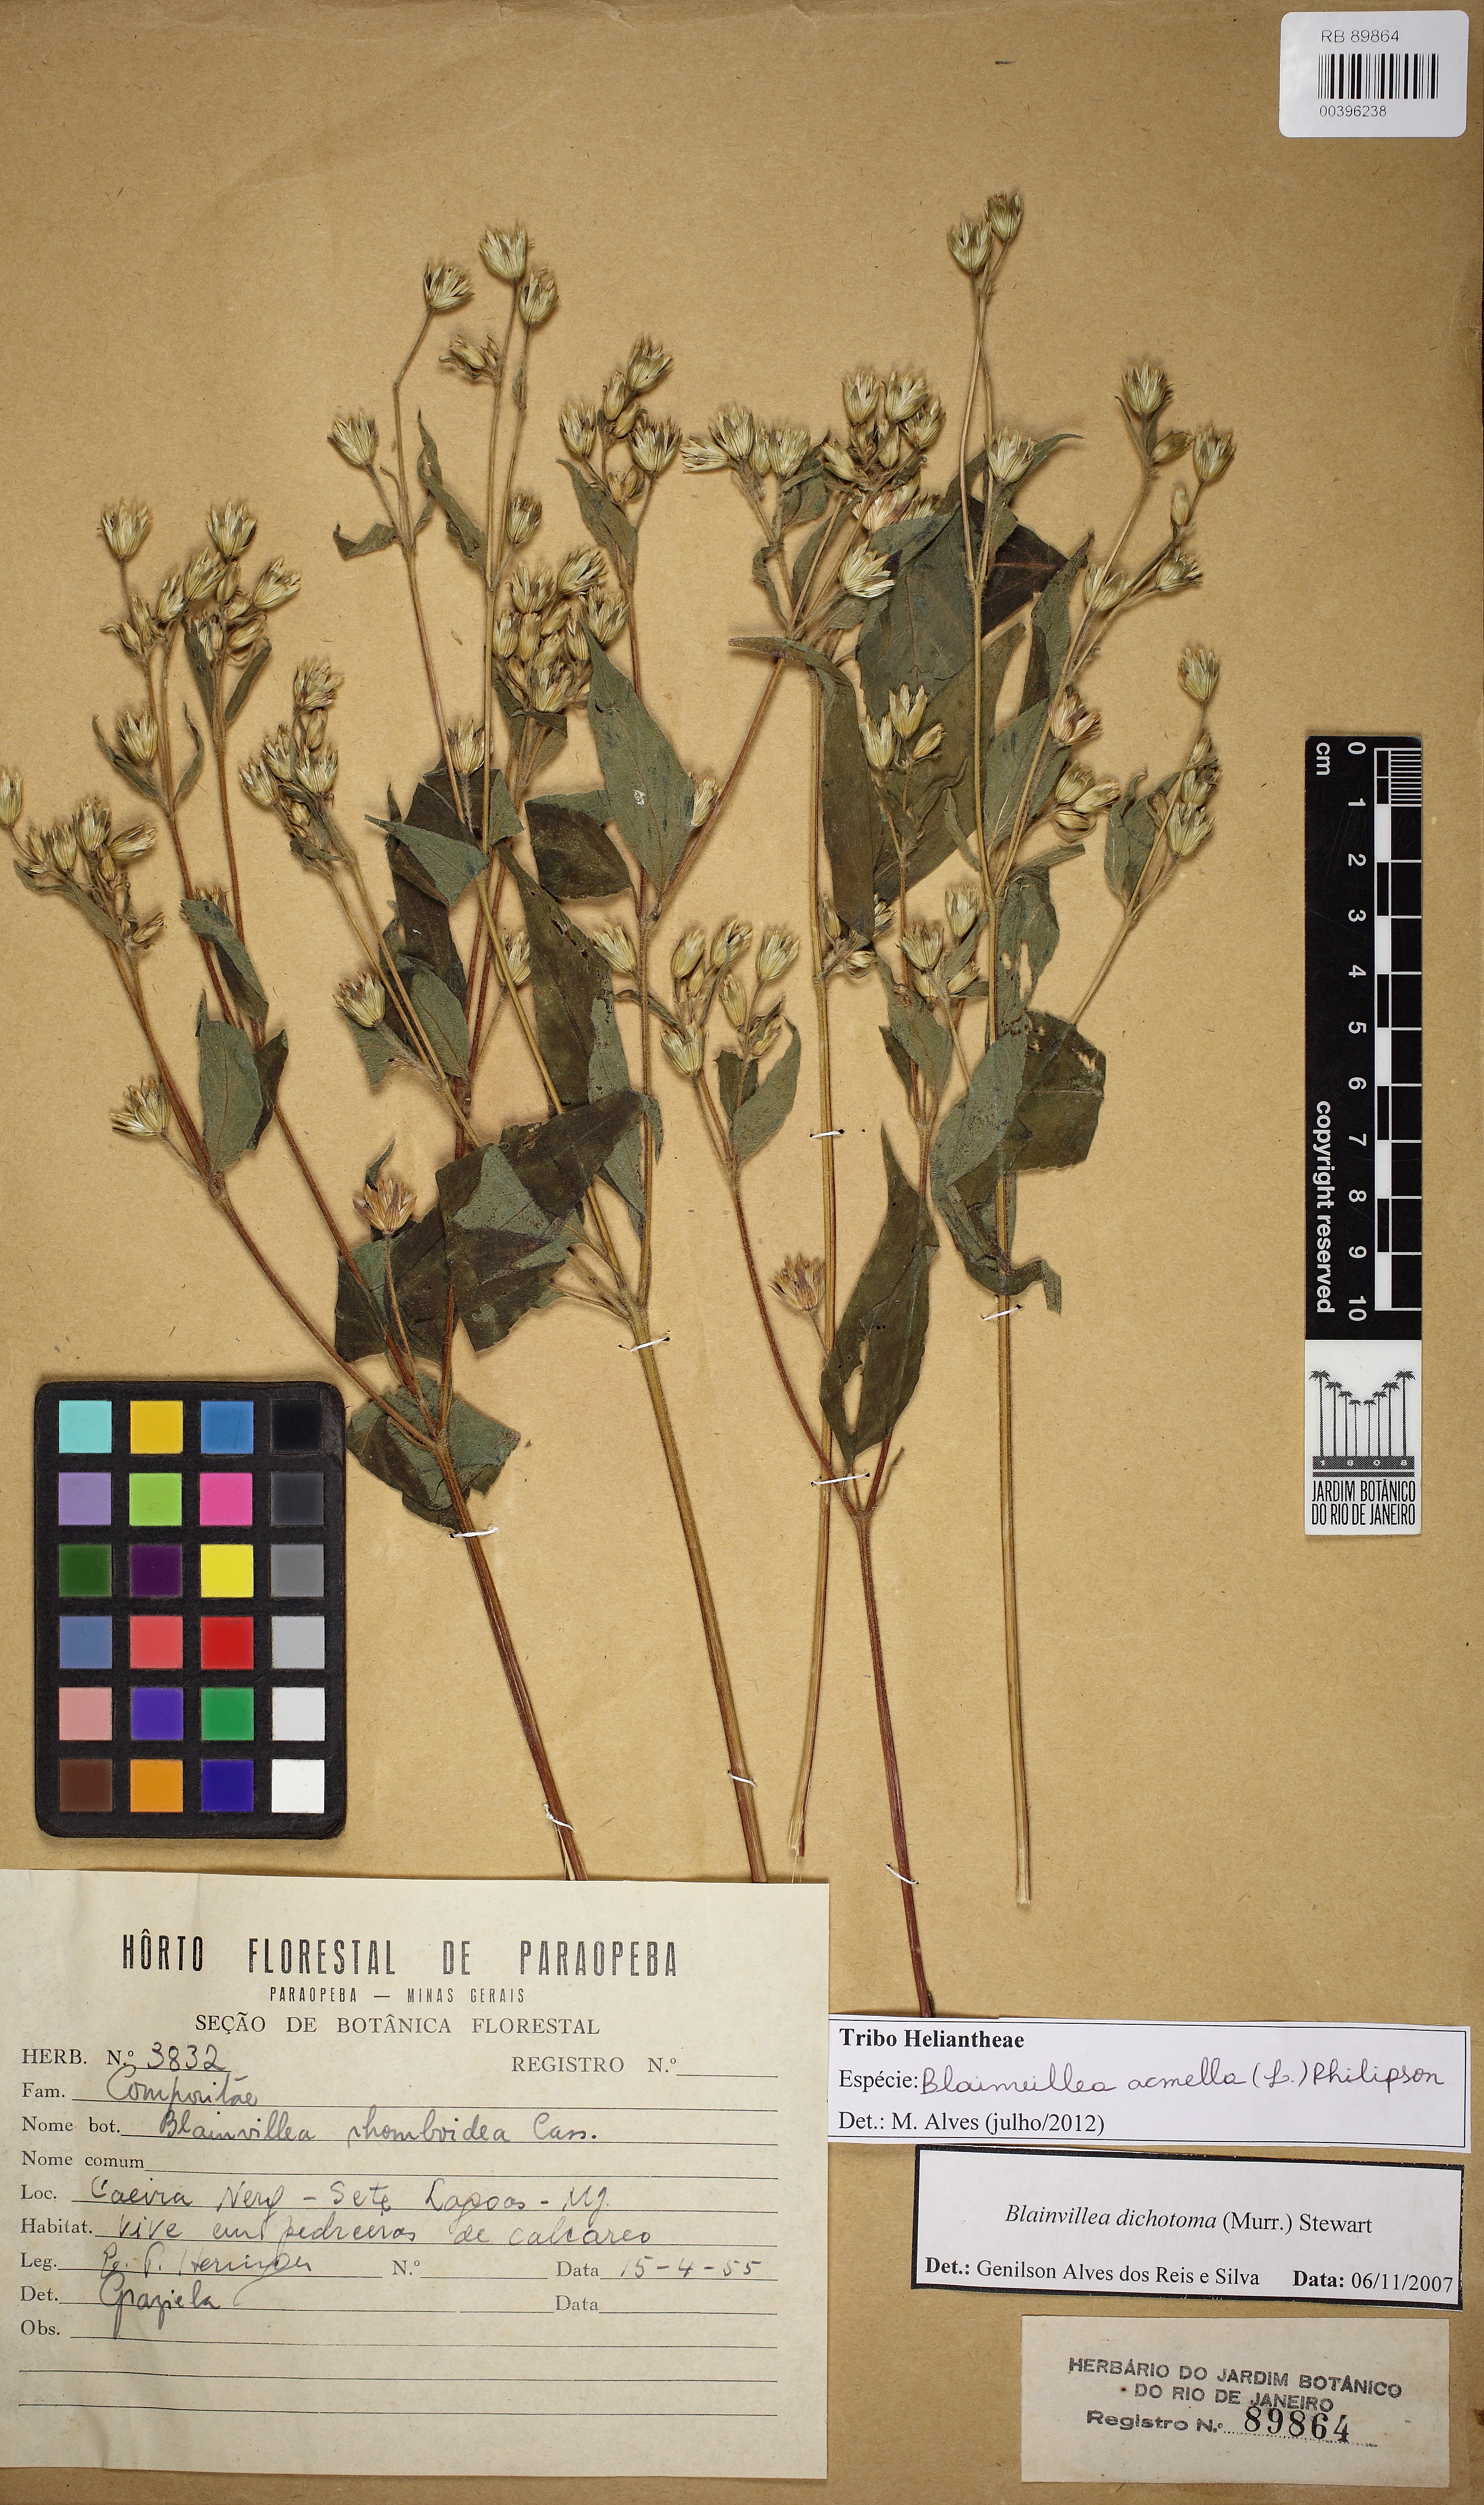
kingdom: Plantae
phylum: Tracheophyta
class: Magnoliopsida
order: Asterales
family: Asteraceae
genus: Blainvillea
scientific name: Blainvillea acmella
